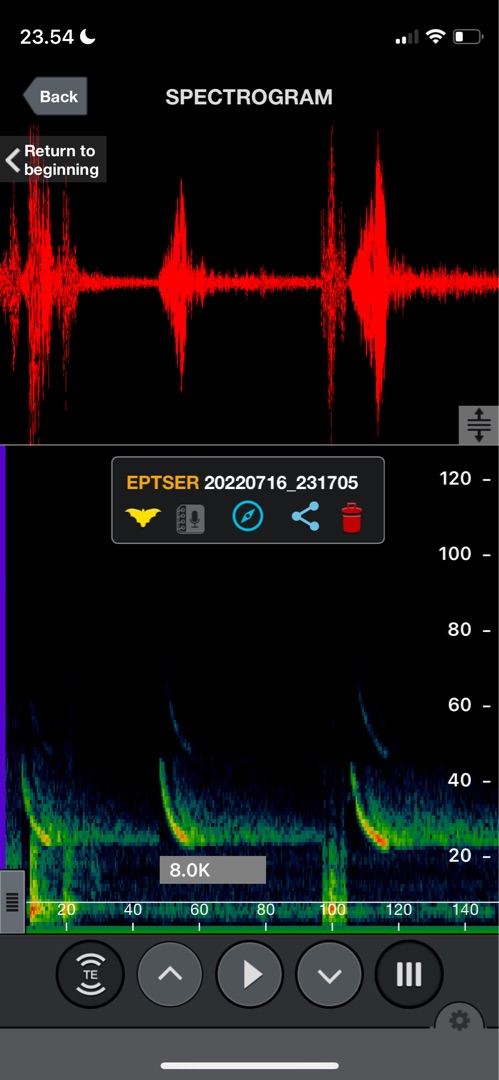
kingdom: Animalia
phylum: Chordata
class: Mammalia
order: Chiroptera
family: Vespertilionidae
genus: Eptesicus
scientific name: Eptesicus serotinus
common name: Sydflagermus
